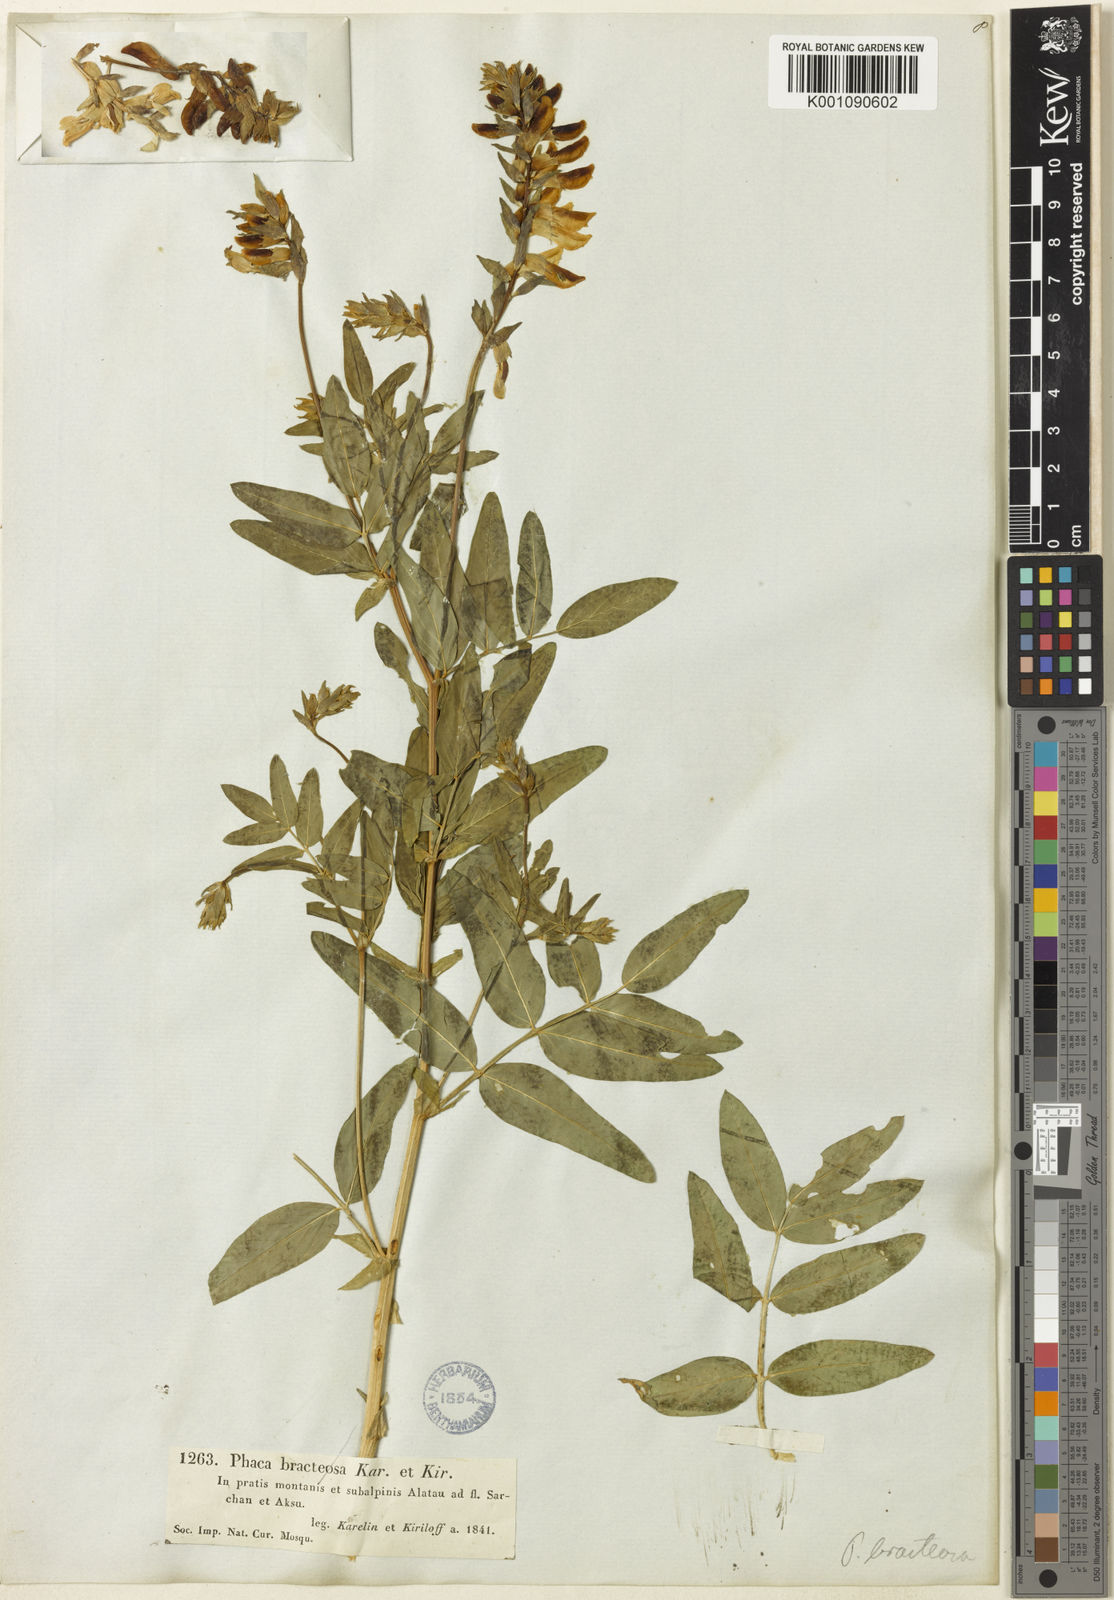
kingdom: Plantae
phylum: Tracheophyta
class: Magnoliopsida
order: Fabales
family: Fabaceae
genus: Astragalus
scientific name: Astragalus
